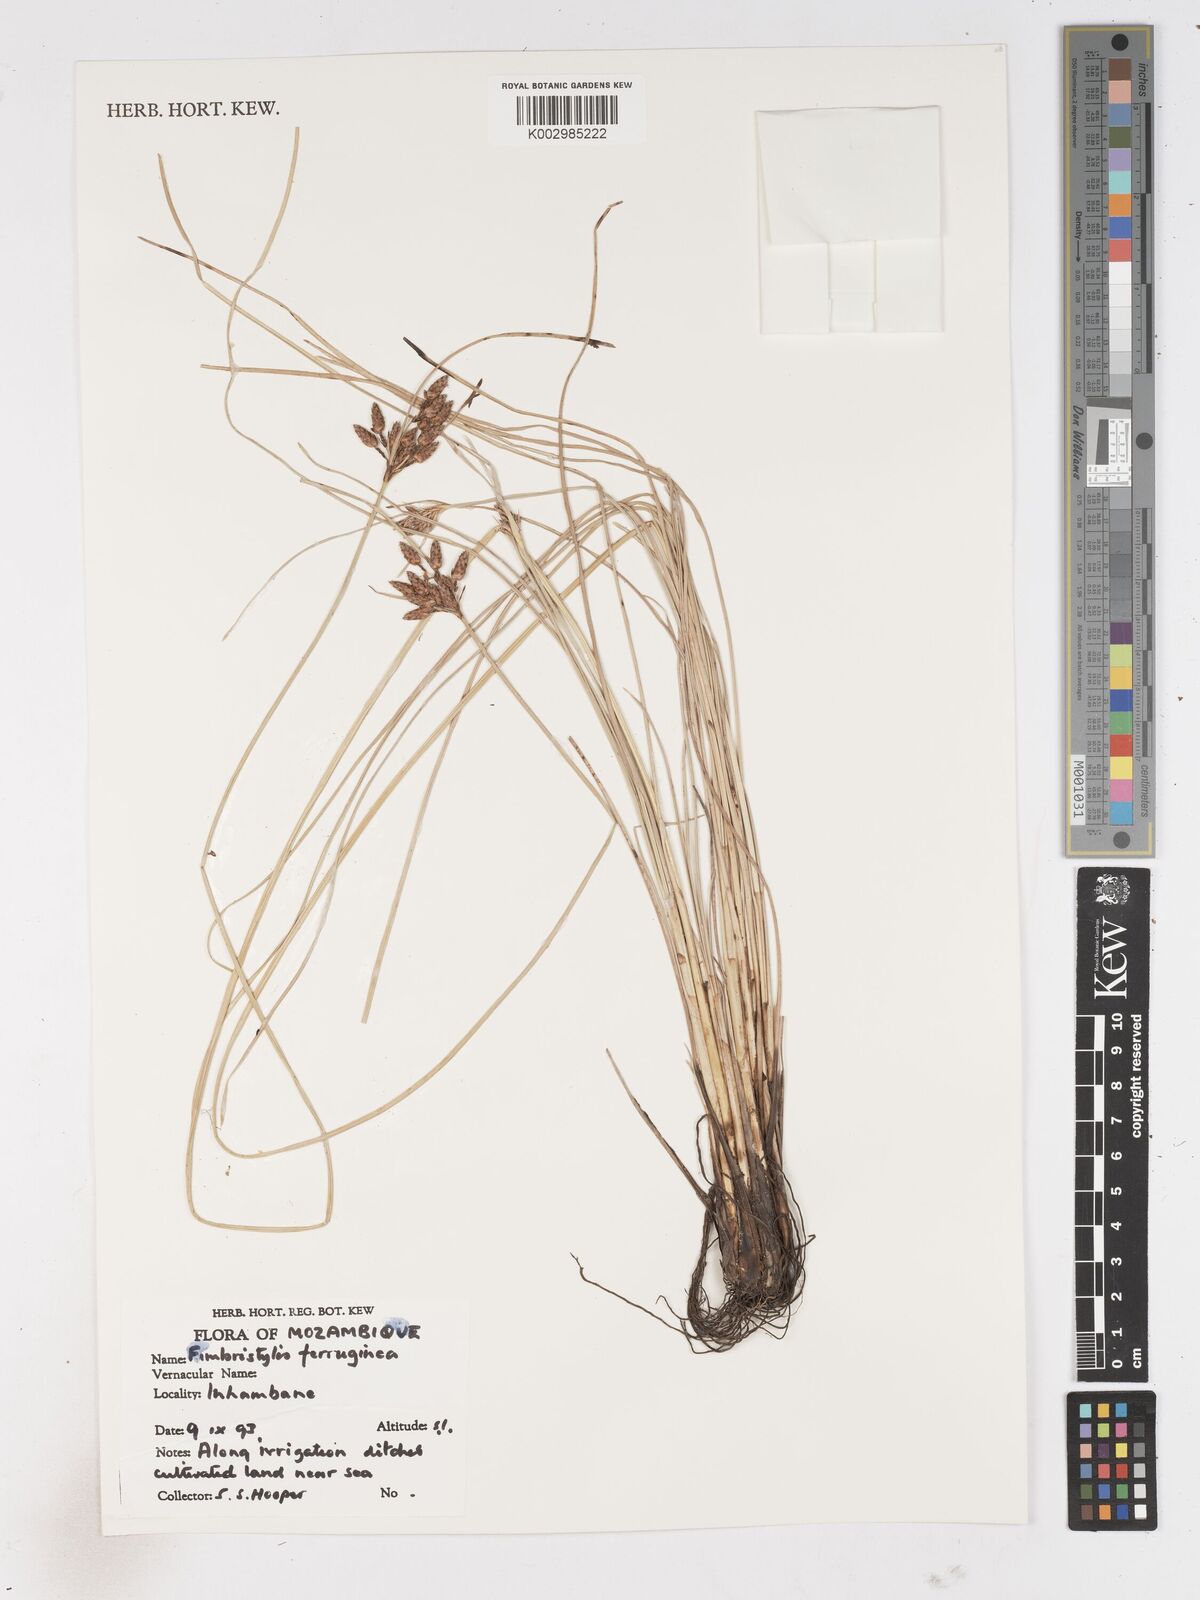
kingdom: Plantae
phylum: Tracheophyta
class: Liliopsida
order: Poales
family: Cyperaceae
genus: Fimbristylis
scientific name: Fimbristylis ferruginea
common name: West indian fimbry
